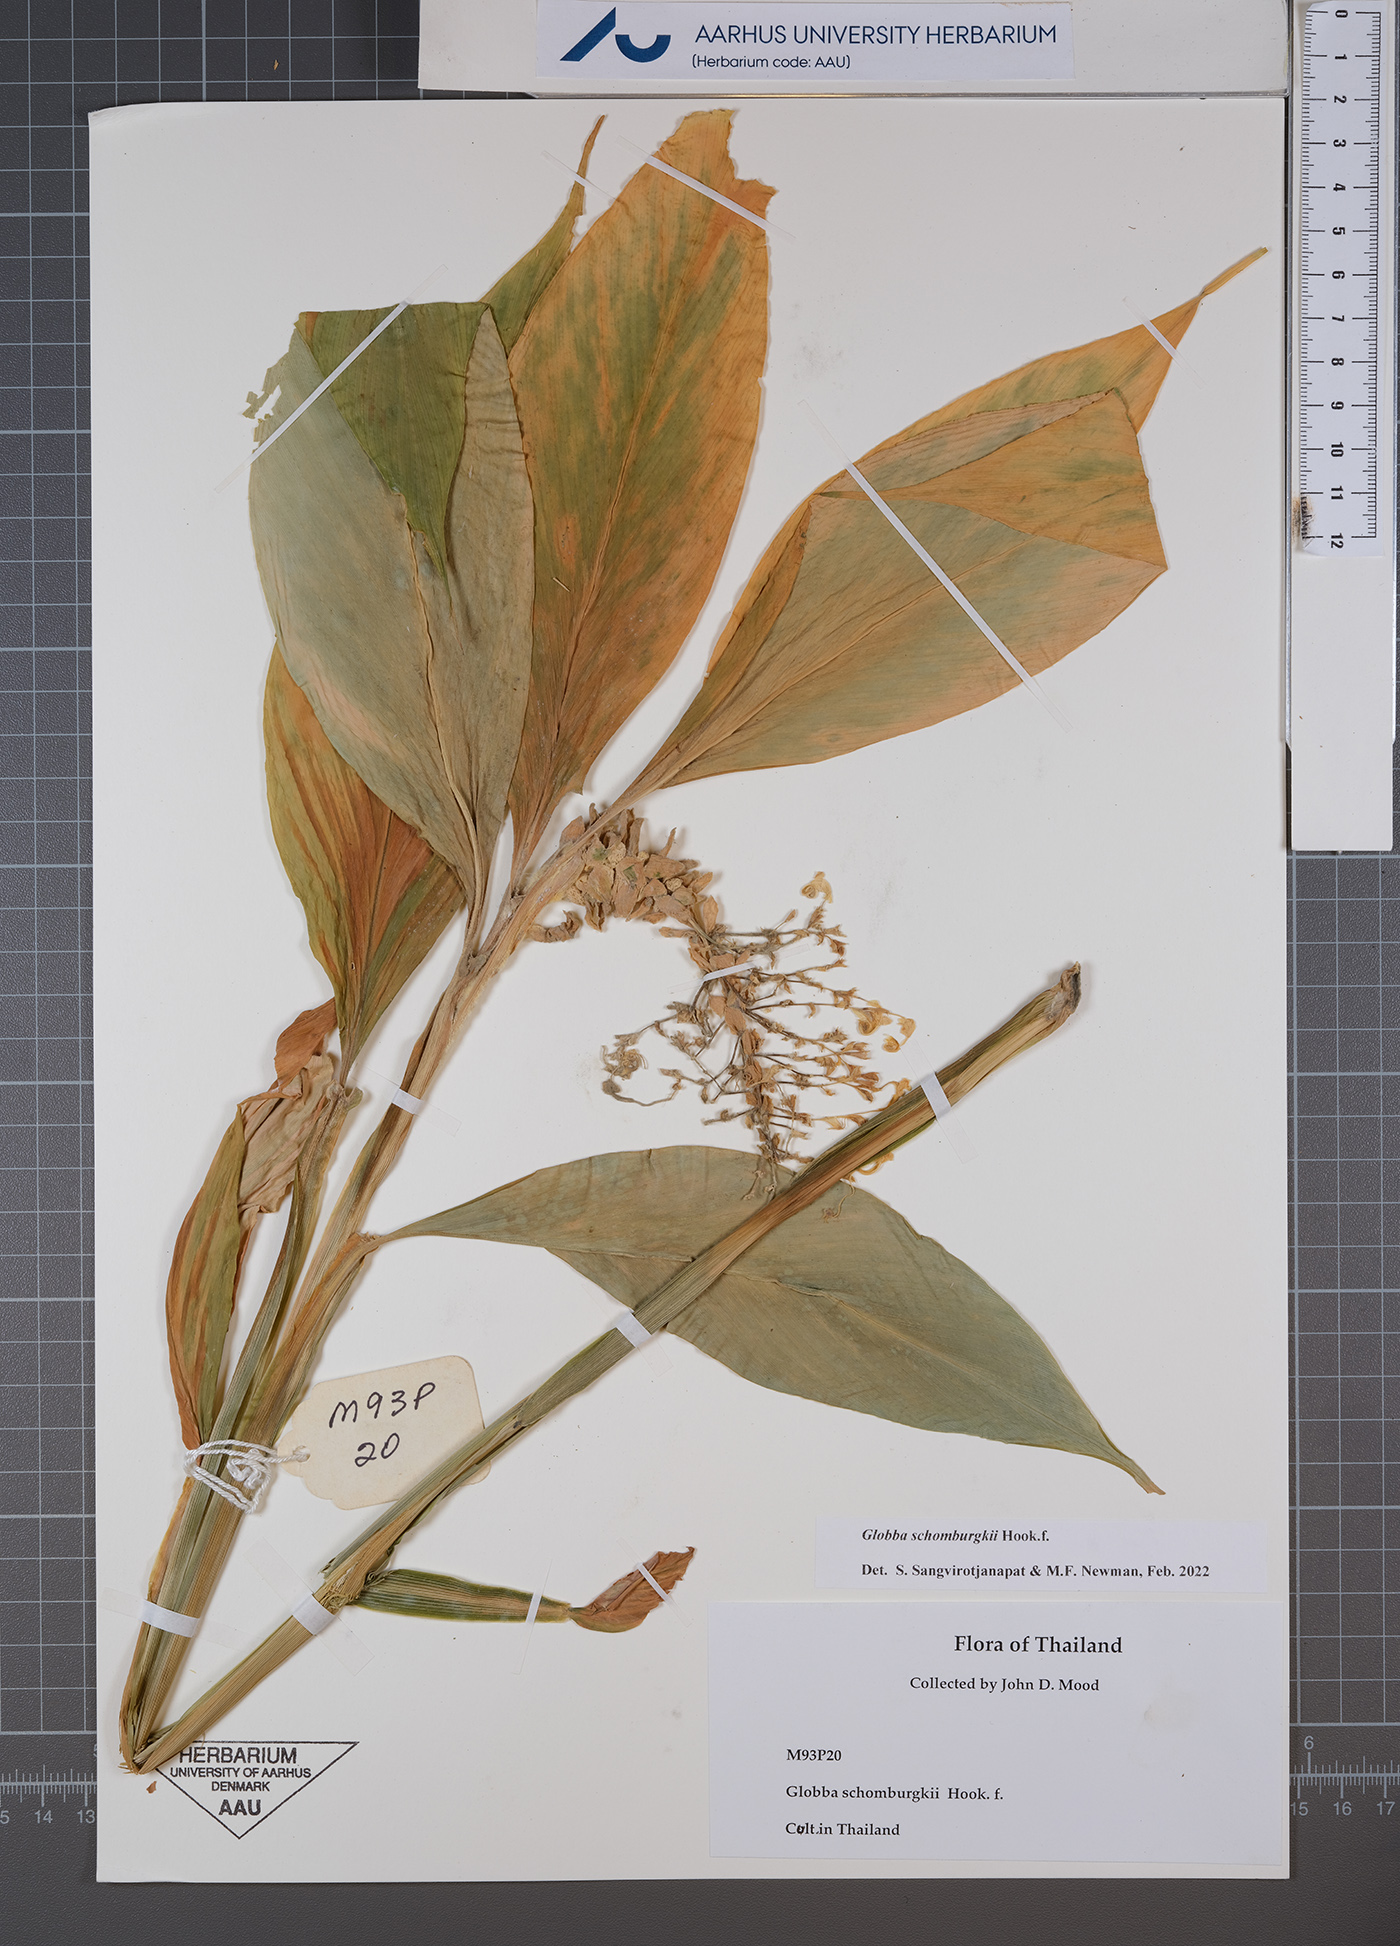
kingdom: Plantae
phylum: Tracheophyta
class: Liliopsida
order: Zingiberales
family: Zingiberaceae
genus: Globba
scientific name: Globba schomburgkii
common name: Dancing girl ginger
